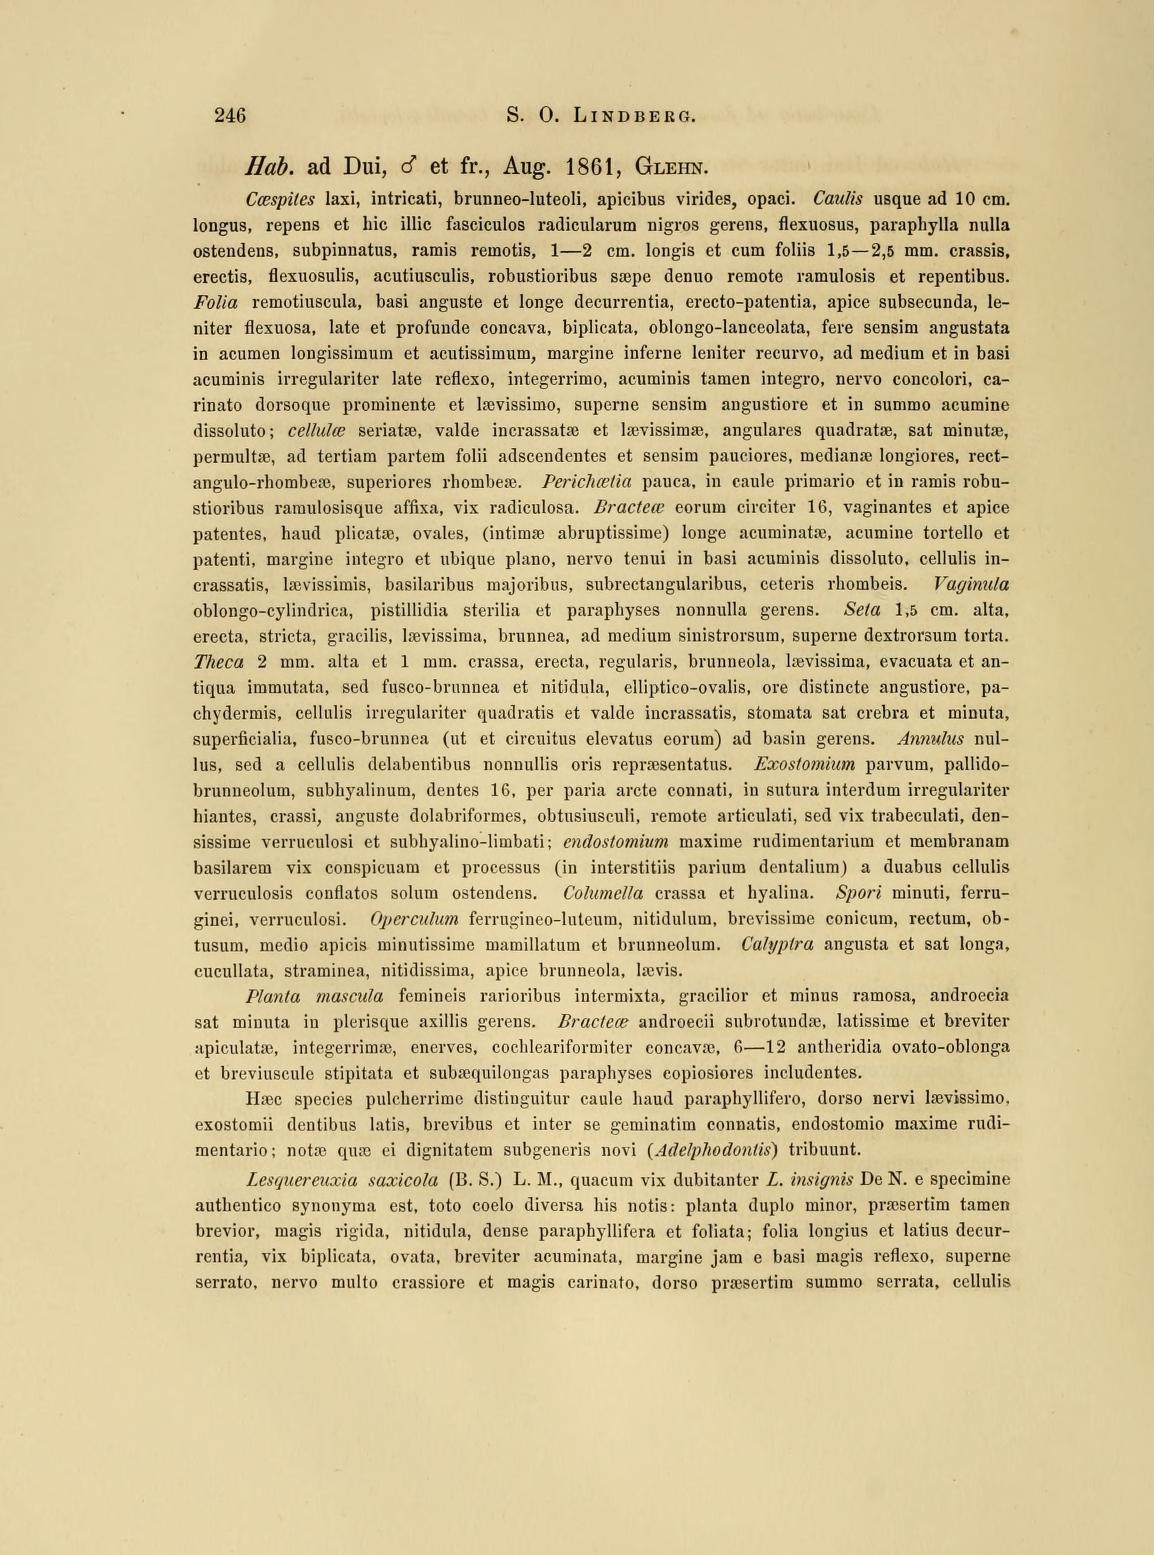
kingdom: Plantae
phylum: Bryophyta
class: Bryopsida
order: Hypnales
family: Pseudoleskeaceae
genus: Rigodiadelphus
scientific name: Rigodiadelphus robustus
